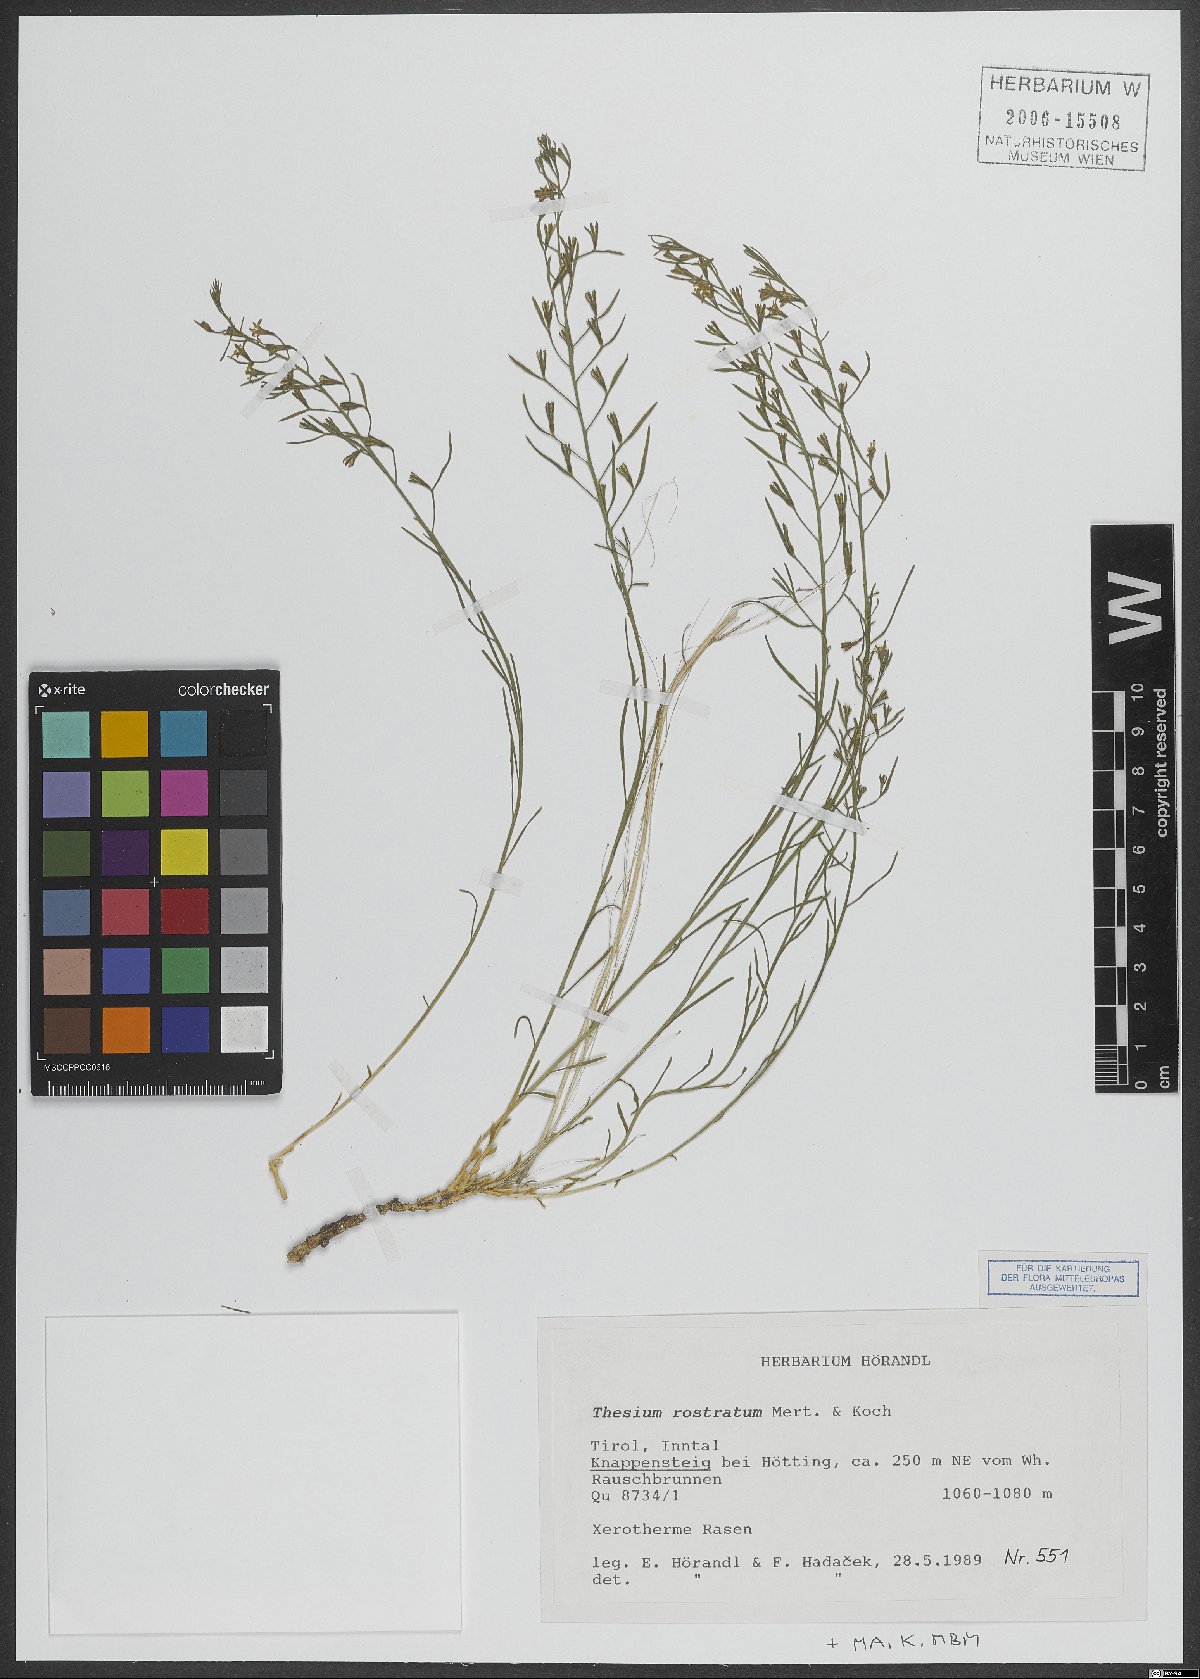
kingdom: Plantae
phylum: Tracheophyta
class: Magnoliopsida
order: Santalales
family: Thesiaceae
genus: Thesium
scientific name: Thesium rostratum
